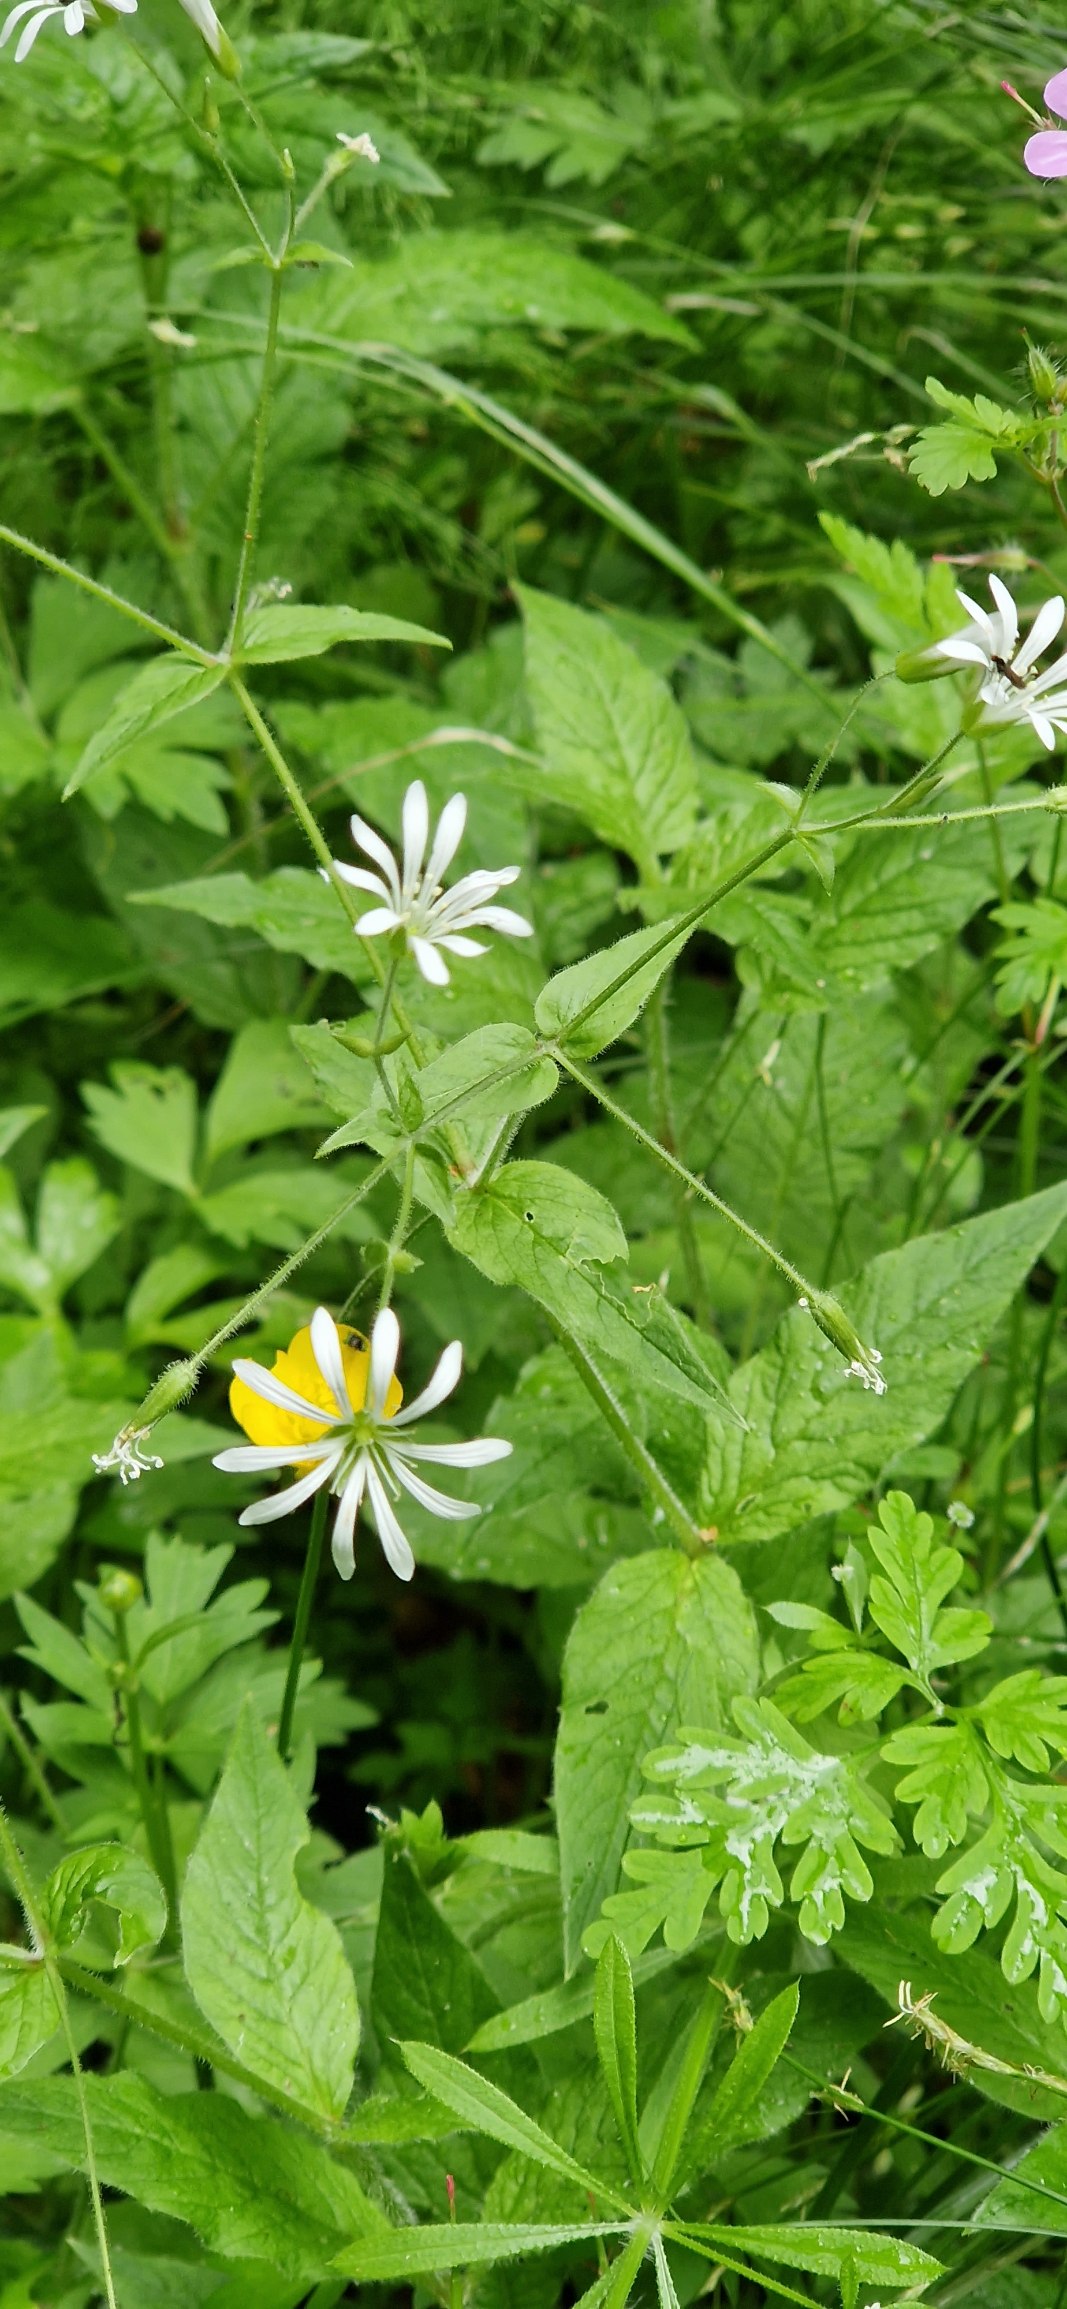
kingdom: Plantae
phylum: Tracheophyta
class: Magnoliopsida
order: Caryophyllales
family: Caryophyllaceae
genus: Stellaria
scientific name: Stellaria nemorum
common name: Nordlig lund-fladstjerne
